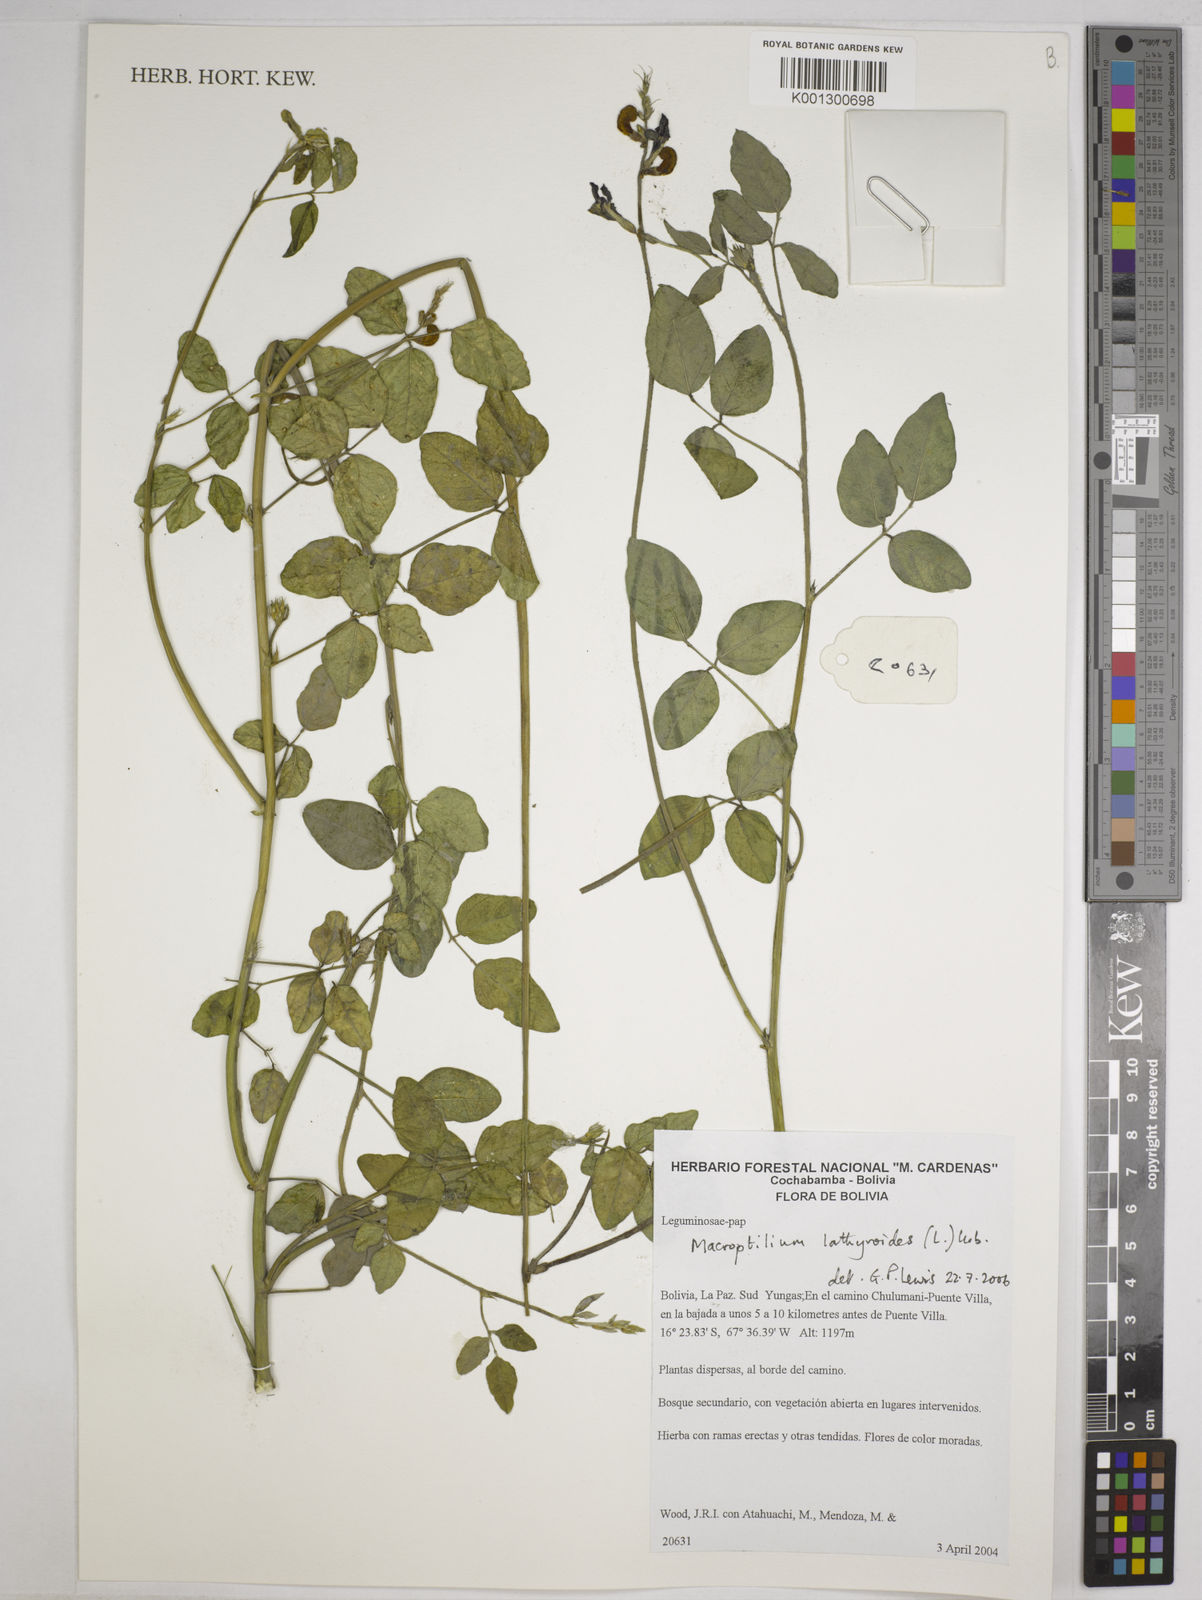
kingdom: Plantae
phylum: Tracheophyta
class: Magnoliopsida
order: Fabales
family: Fabaceae
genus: Macroptilium
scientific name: Macroptilium lathyroides
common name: Wild bushbean
